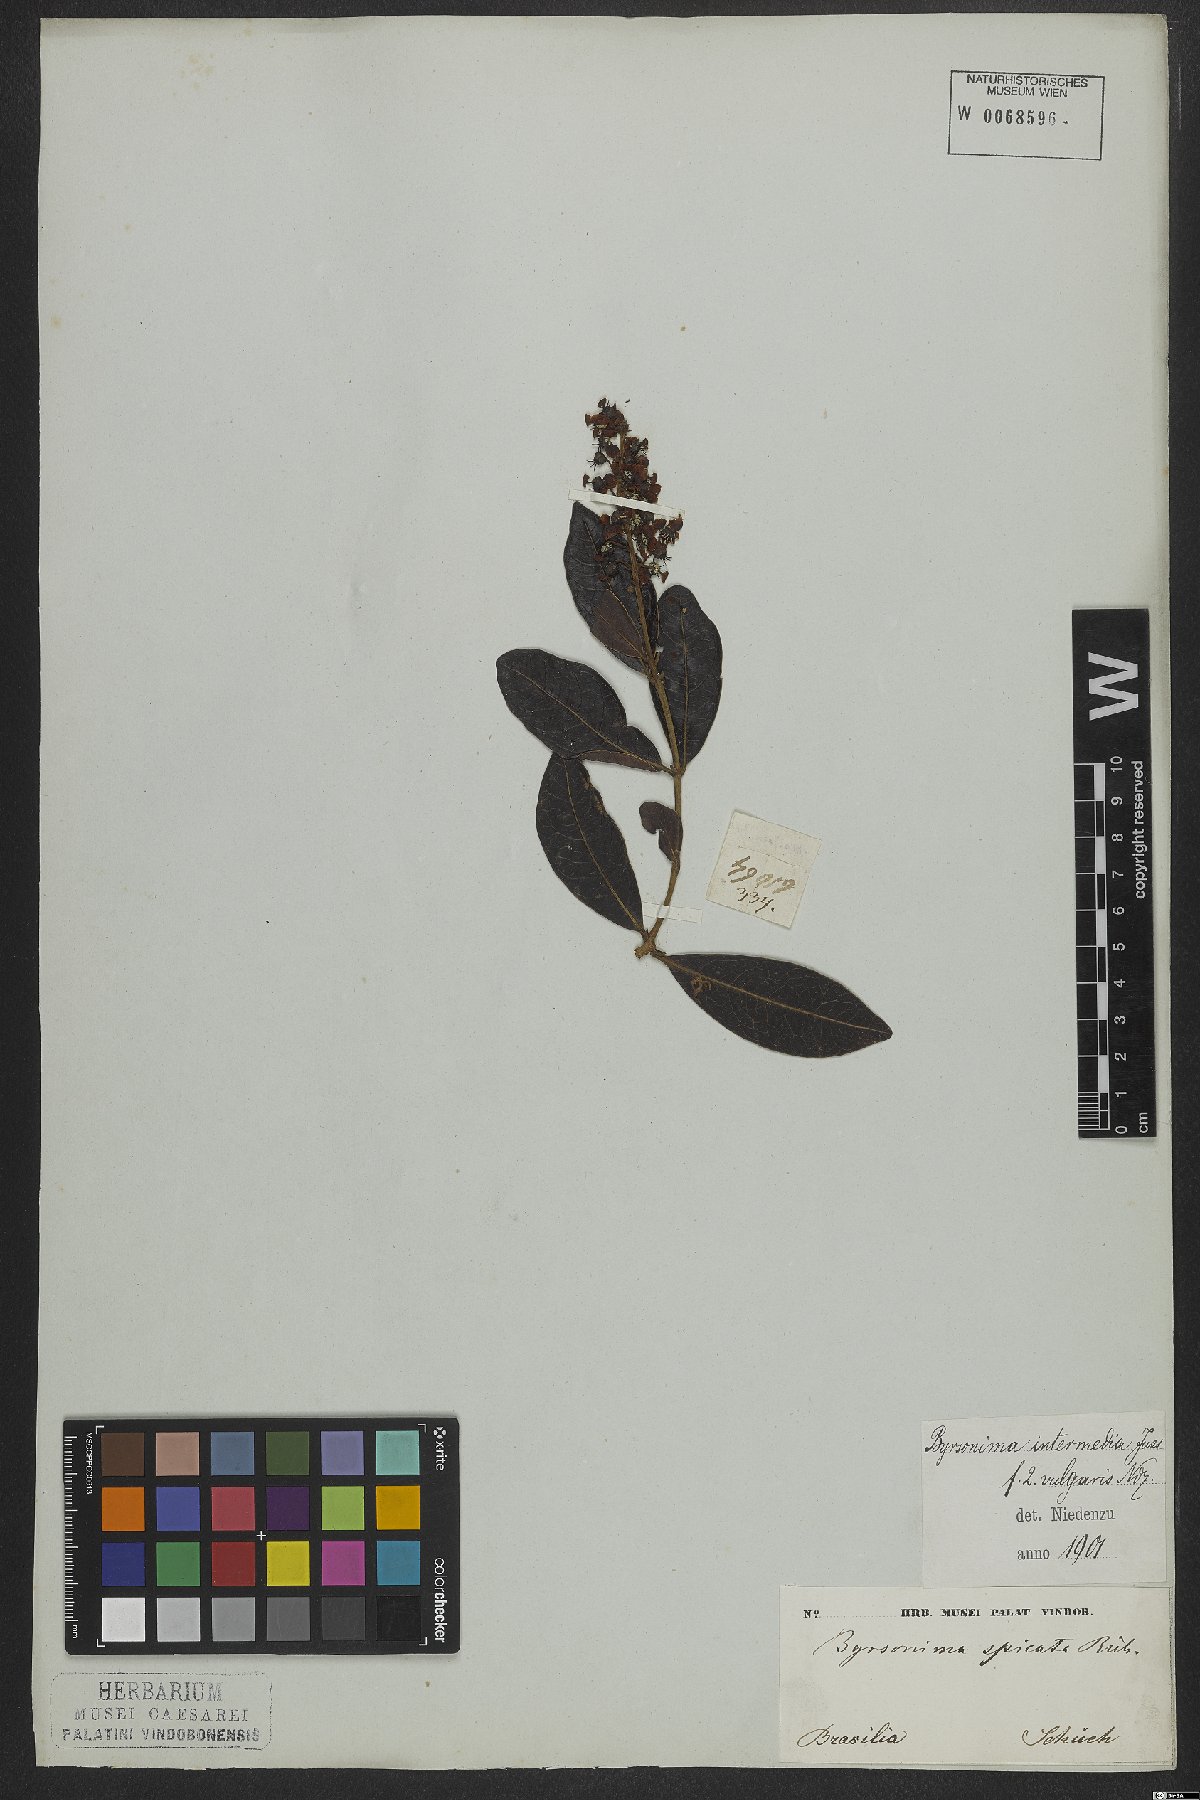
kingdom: Plantae
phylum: Tracheophyta
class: Magnoliopsida
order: Malpighiales
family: Malpighiaceae
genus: Byrsonima
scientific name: Byrsonima intermedia
